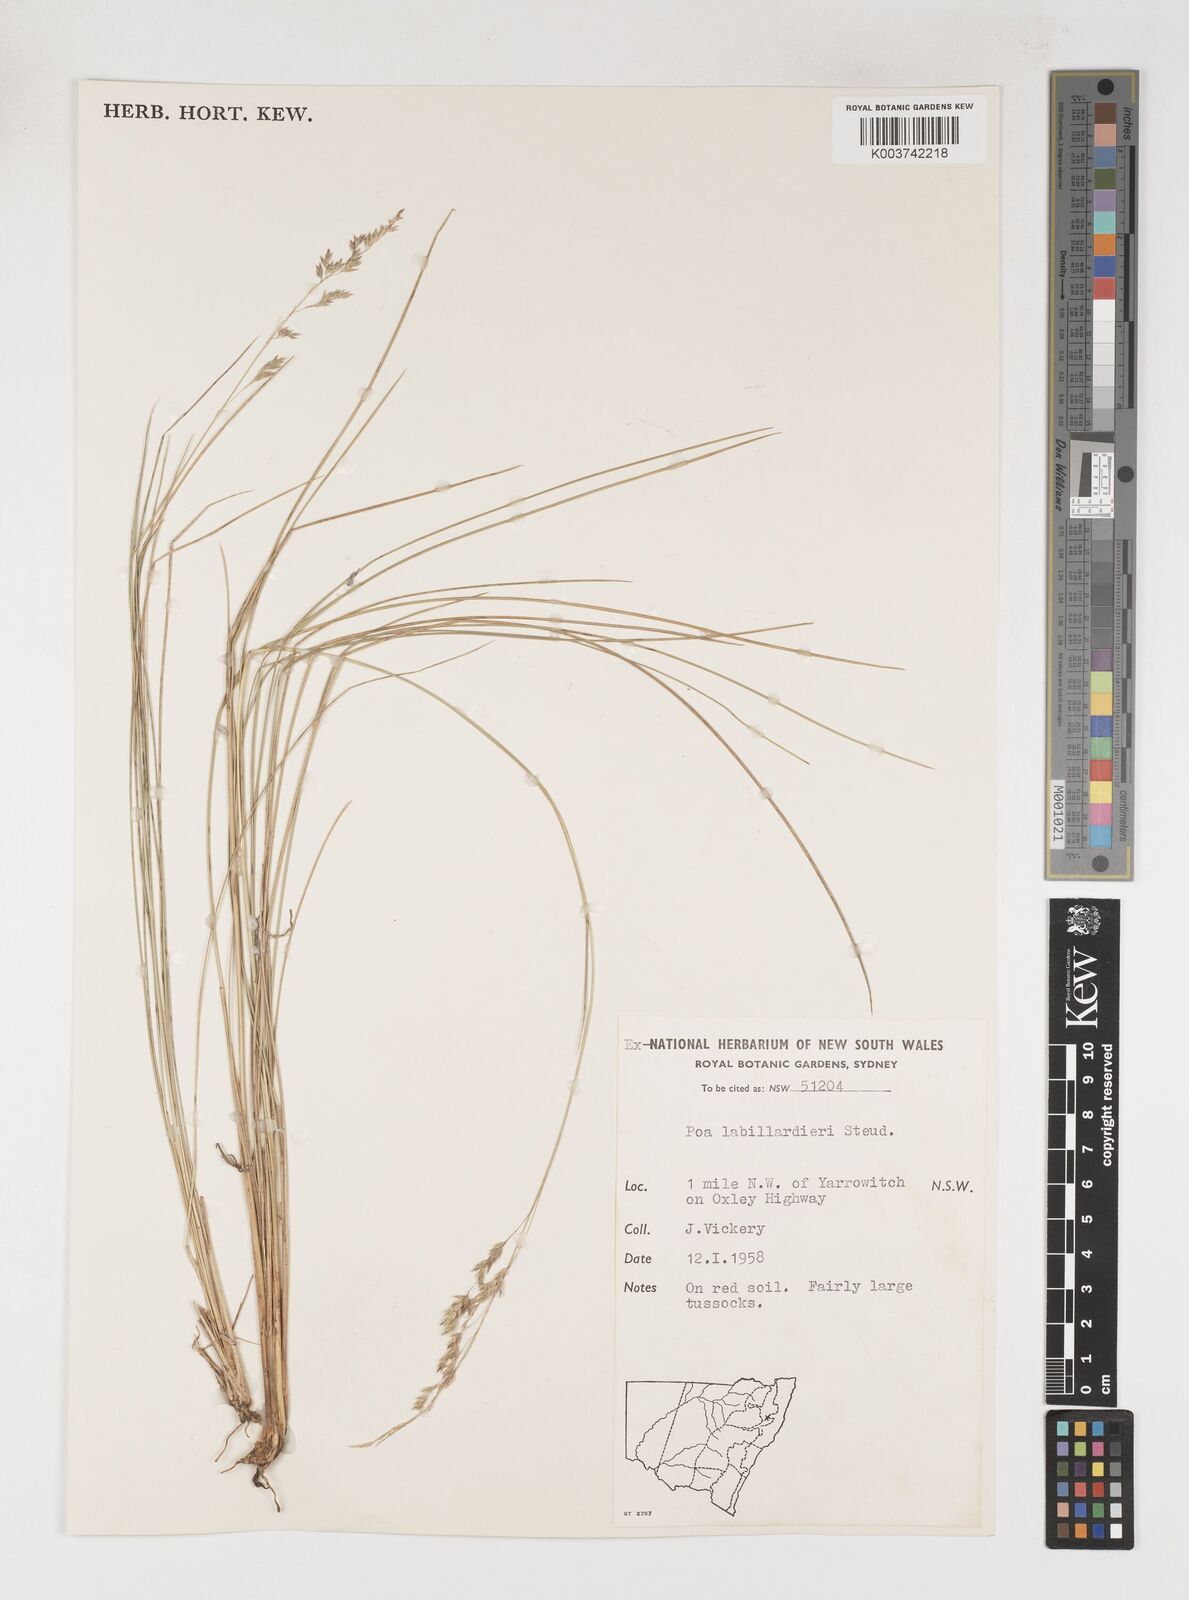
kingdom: Plantae
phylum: Tracheophyta
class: Liliopsida
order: Poales
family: Poaceae
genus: Poa
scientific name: Poa labillardierei
